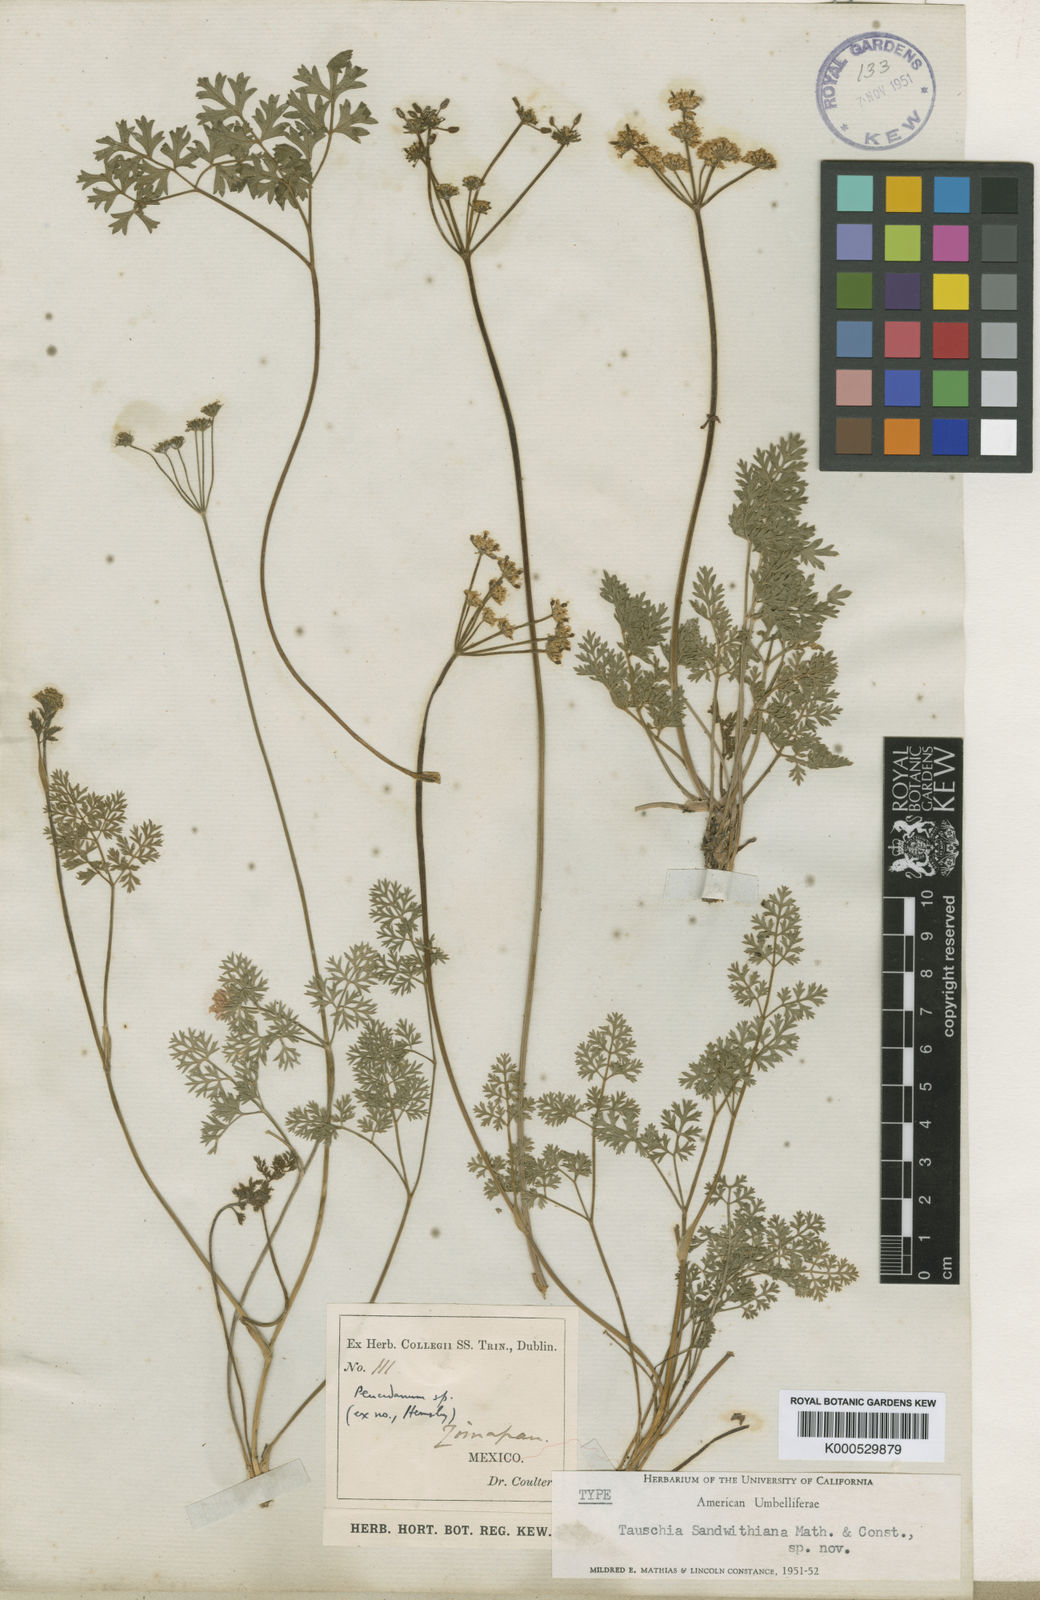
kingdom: Plantae
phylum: Tracheophyta
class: Magnoliopsida
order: Apiales
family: Apiaceae
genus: Tauschia
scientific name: Tauschia sandwithiana
